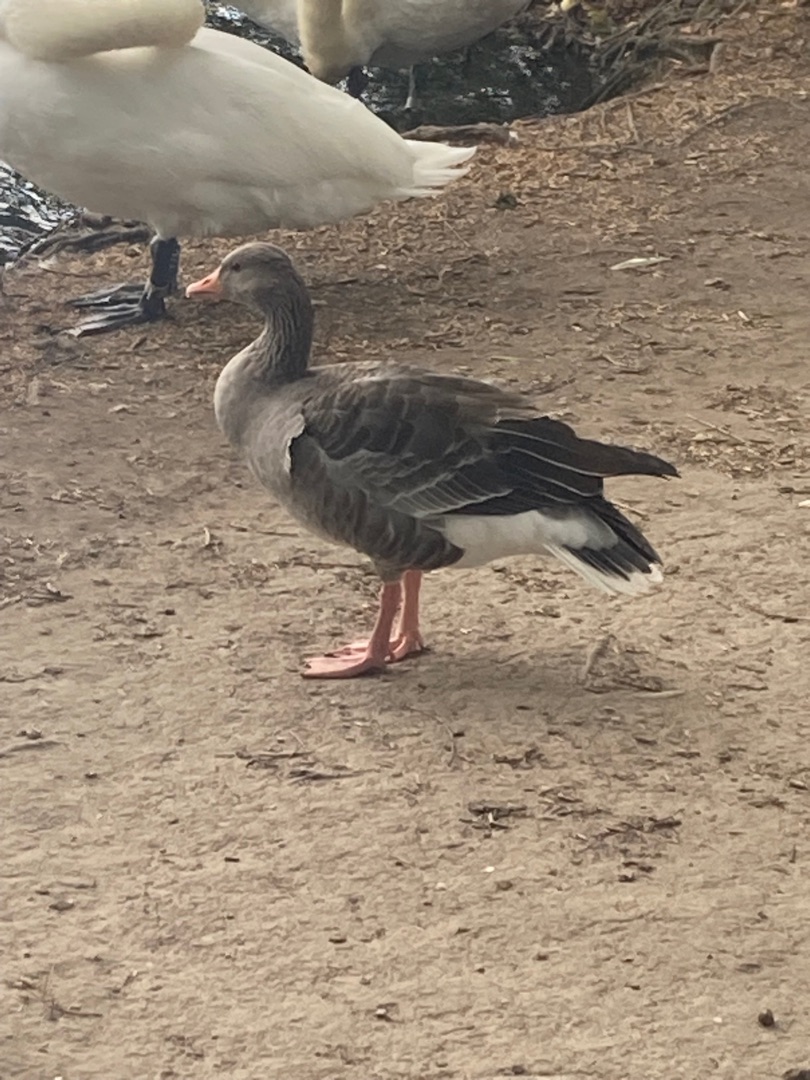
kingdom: Animalia
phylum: Chordata
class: Aves
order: Anseriformes
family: Anatidae
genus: Anser
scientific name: Anser anser
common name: Grågås
